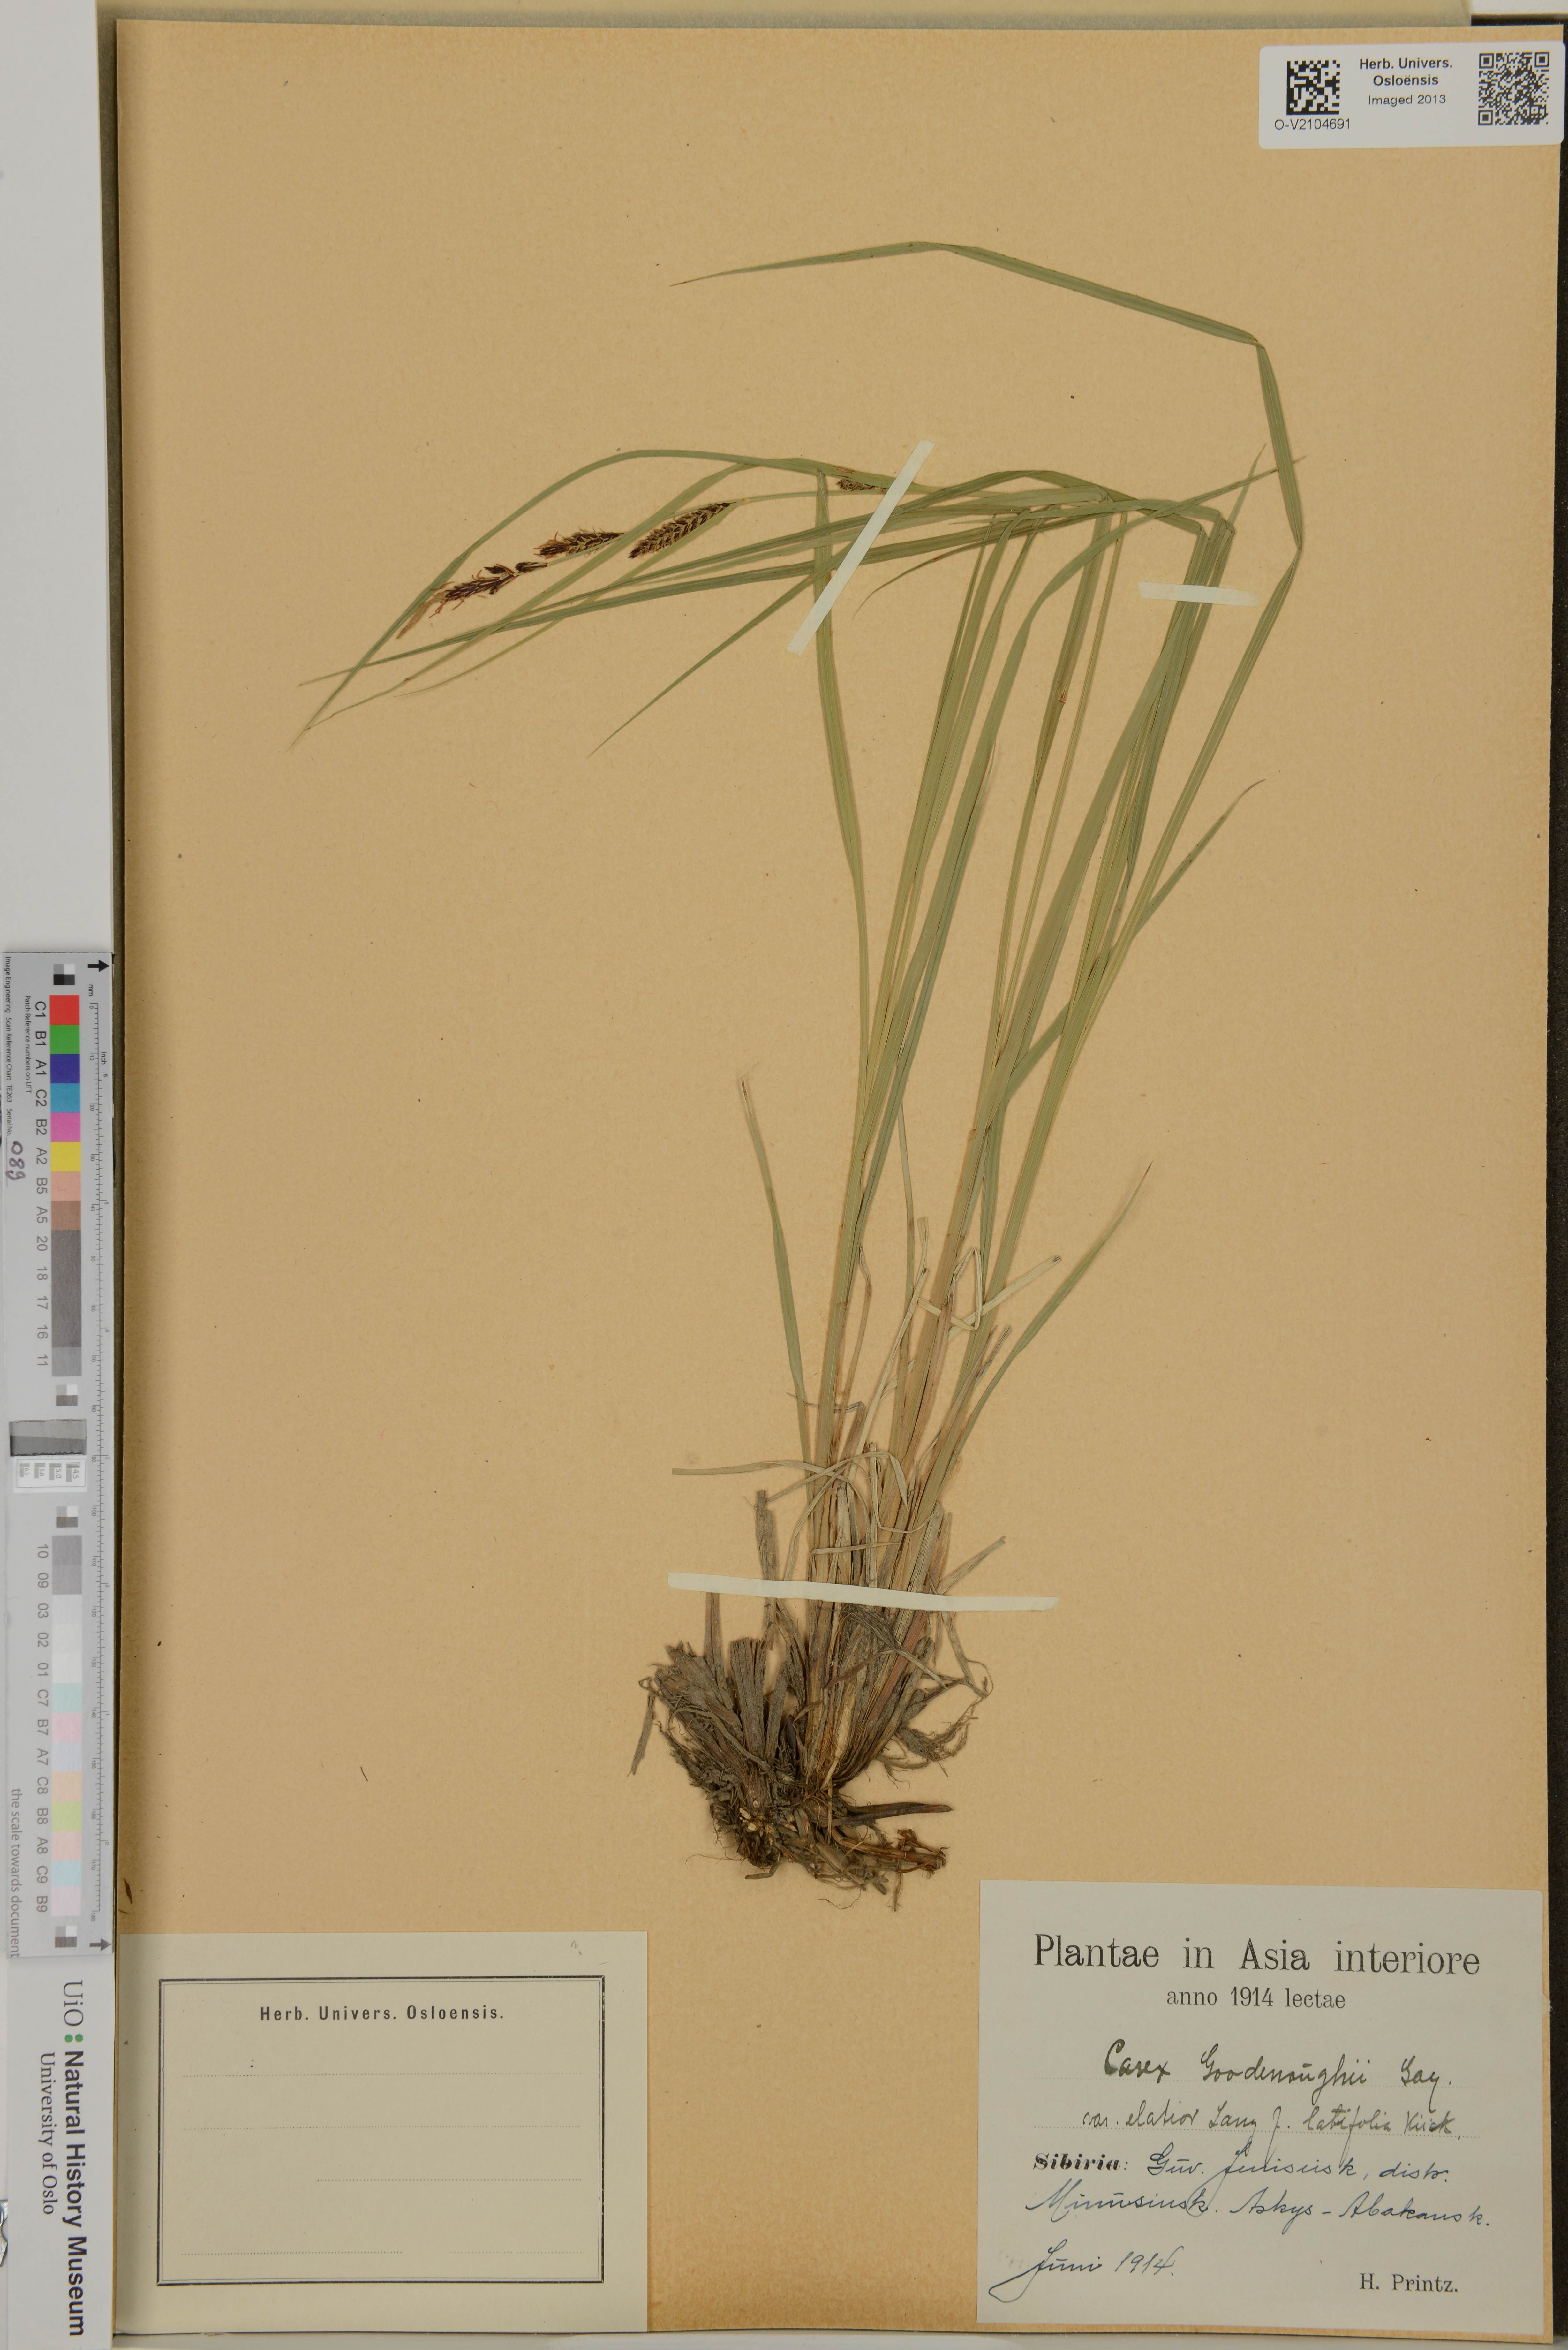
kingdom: Plantae
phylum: Tracheophyta
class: Liliopsida
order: Poales
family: Cyperaceae
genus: Carex
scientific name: Carex nigra
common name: Common sedge
